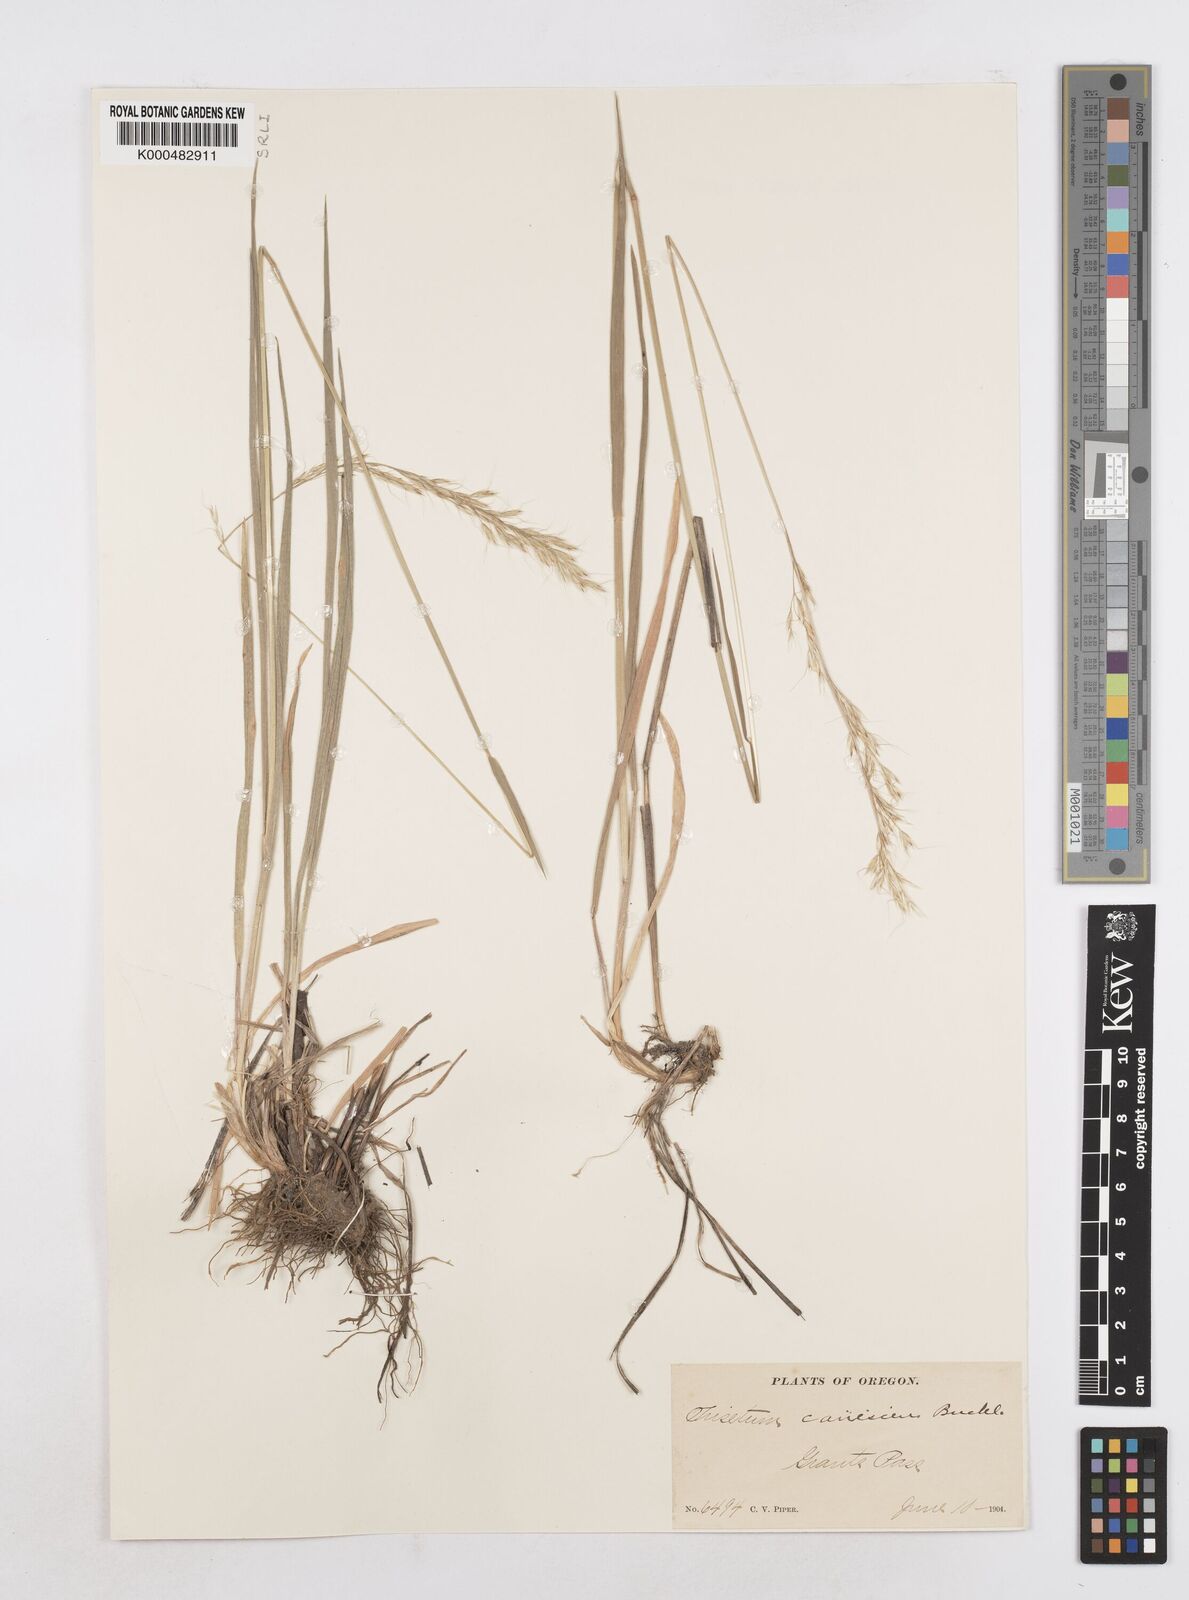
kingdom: Plantae
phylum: Tracheophyta
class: Liliopsida
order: Poales
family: Poaceae
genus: Graphephorum
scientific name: Graphephorum canescens
